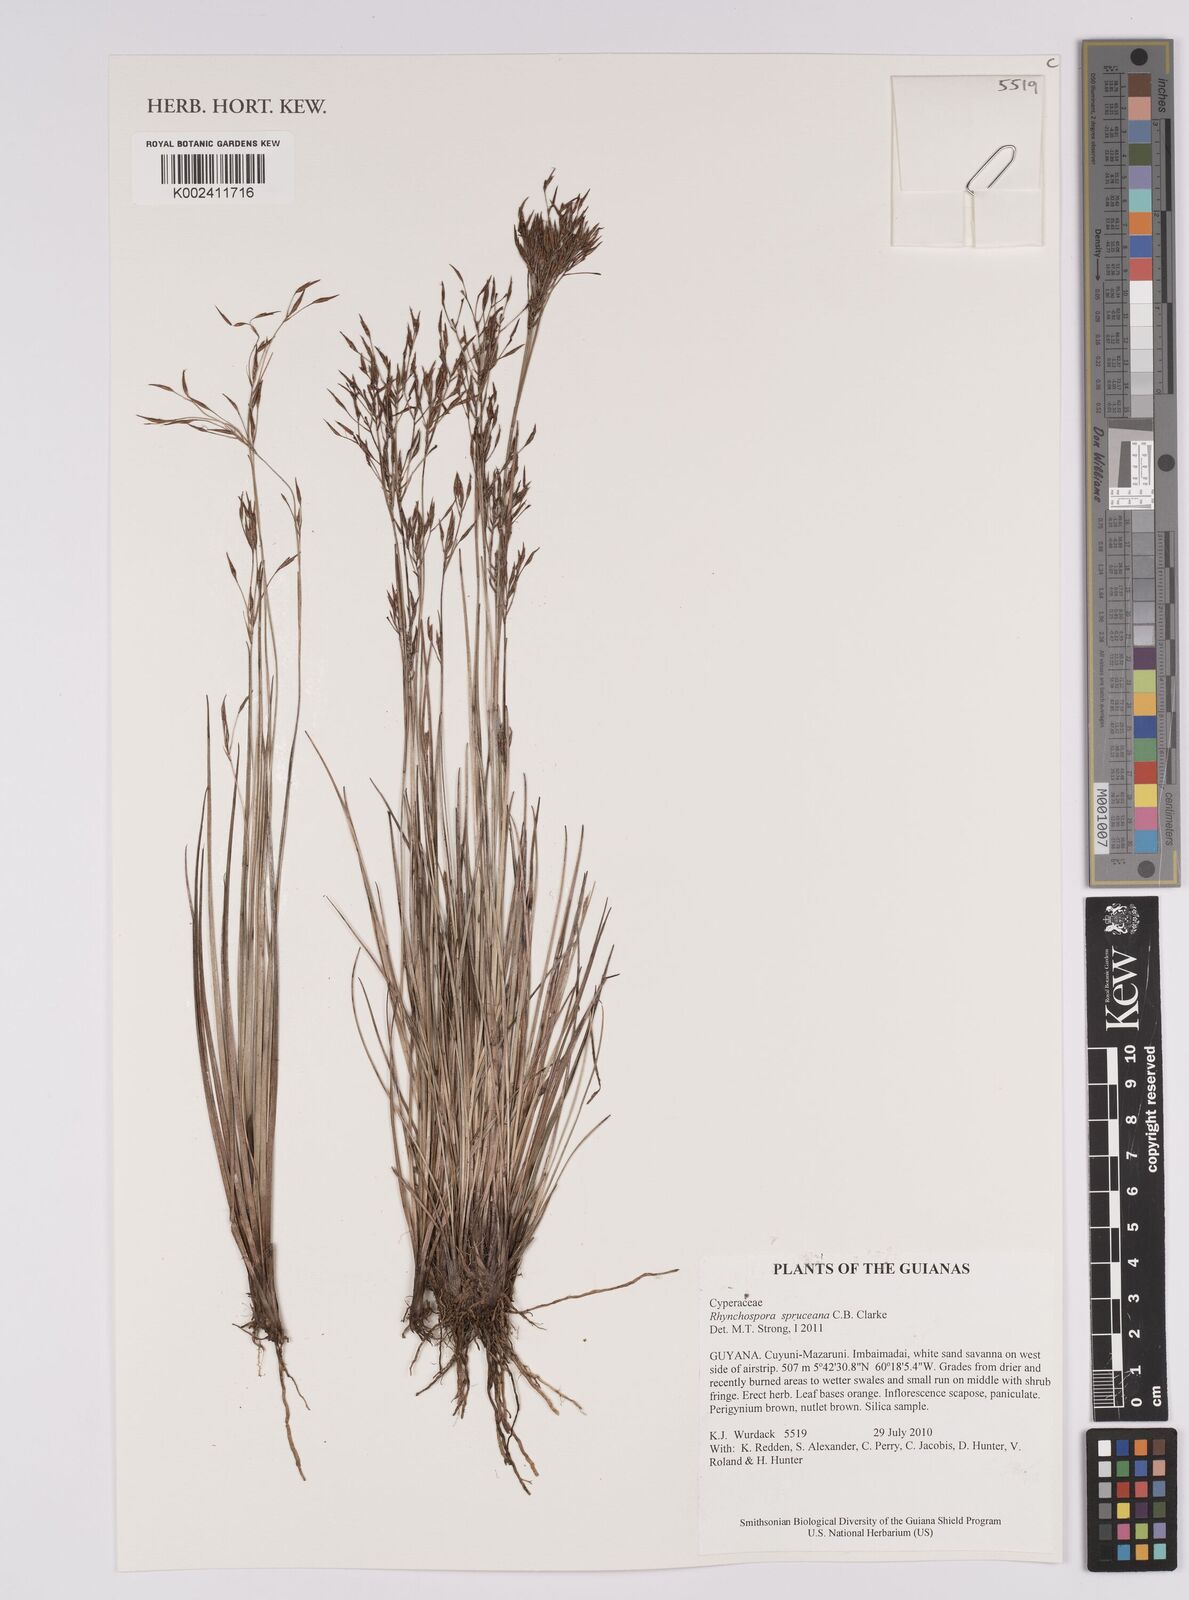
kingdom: Plantae
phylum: Tracheophyta
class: Liliopsida
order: Poales
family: Cyperaceae
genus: Rhynchospora
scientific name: Rhynchospora spruceana
